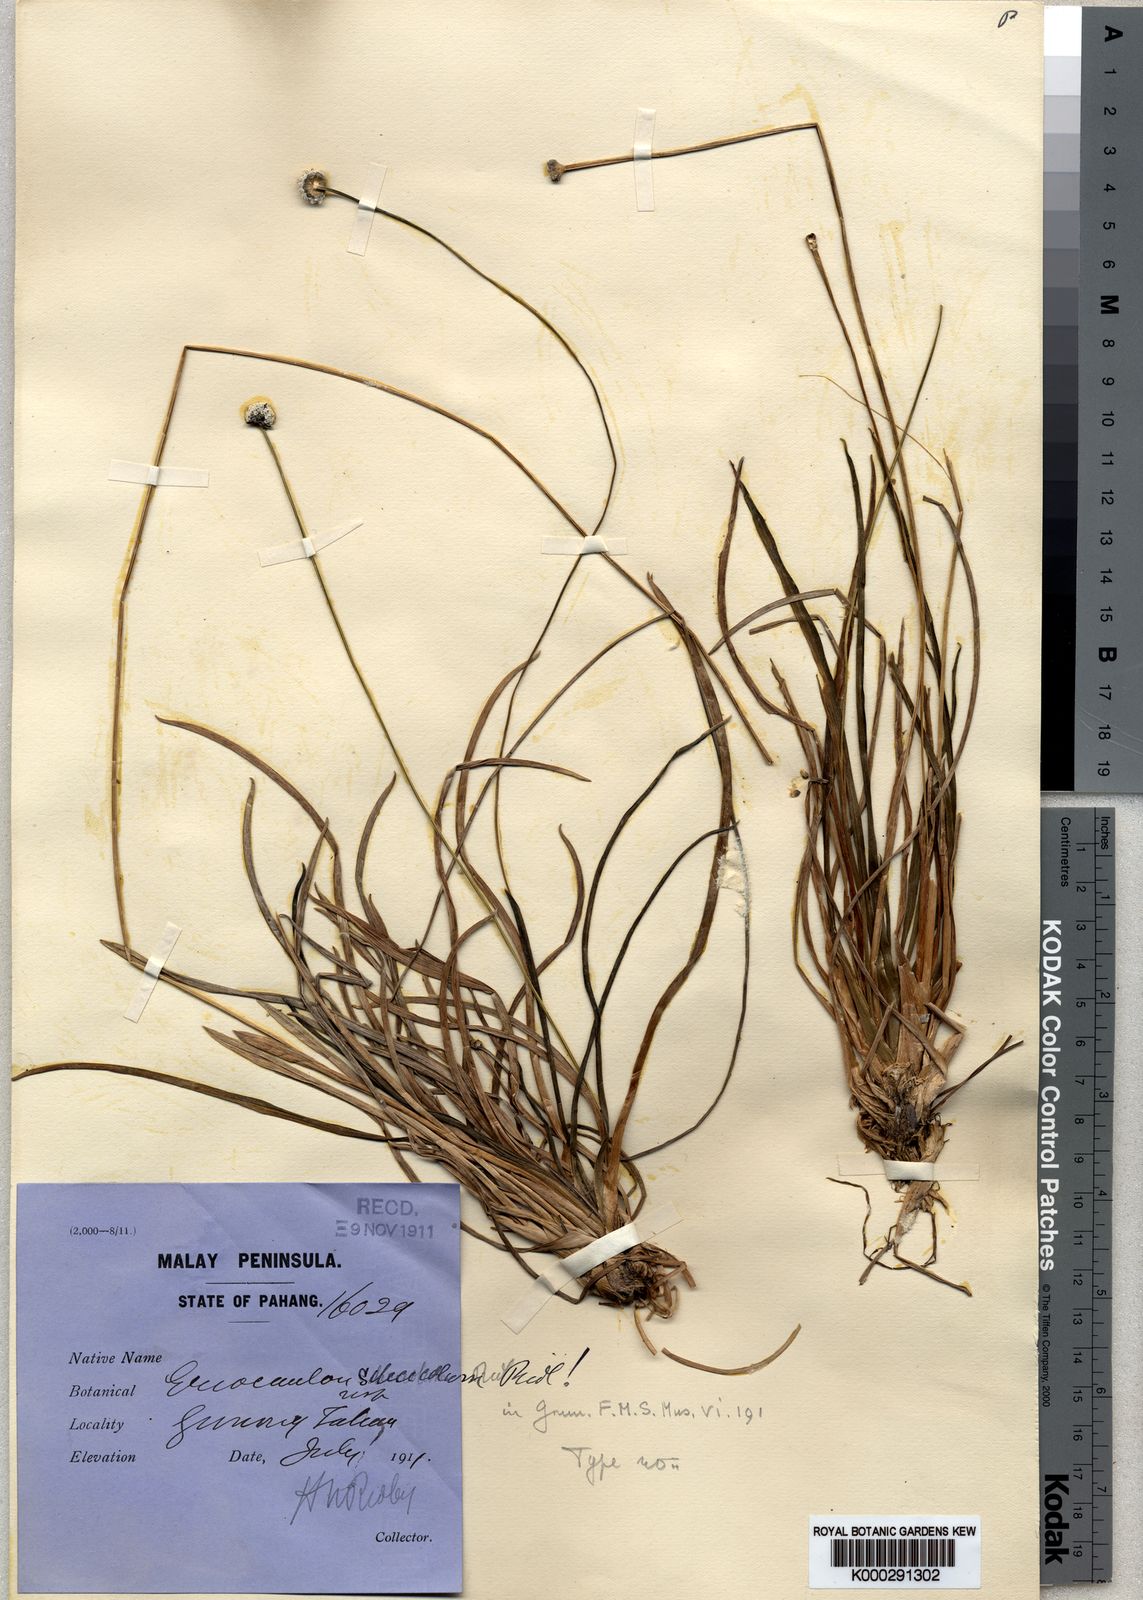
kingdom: Plantae
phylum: Tracheophyta
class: Liliopsida
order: Poales
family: Eriocaulaceae
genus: Eriocaulon
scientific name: Eriocaulon
